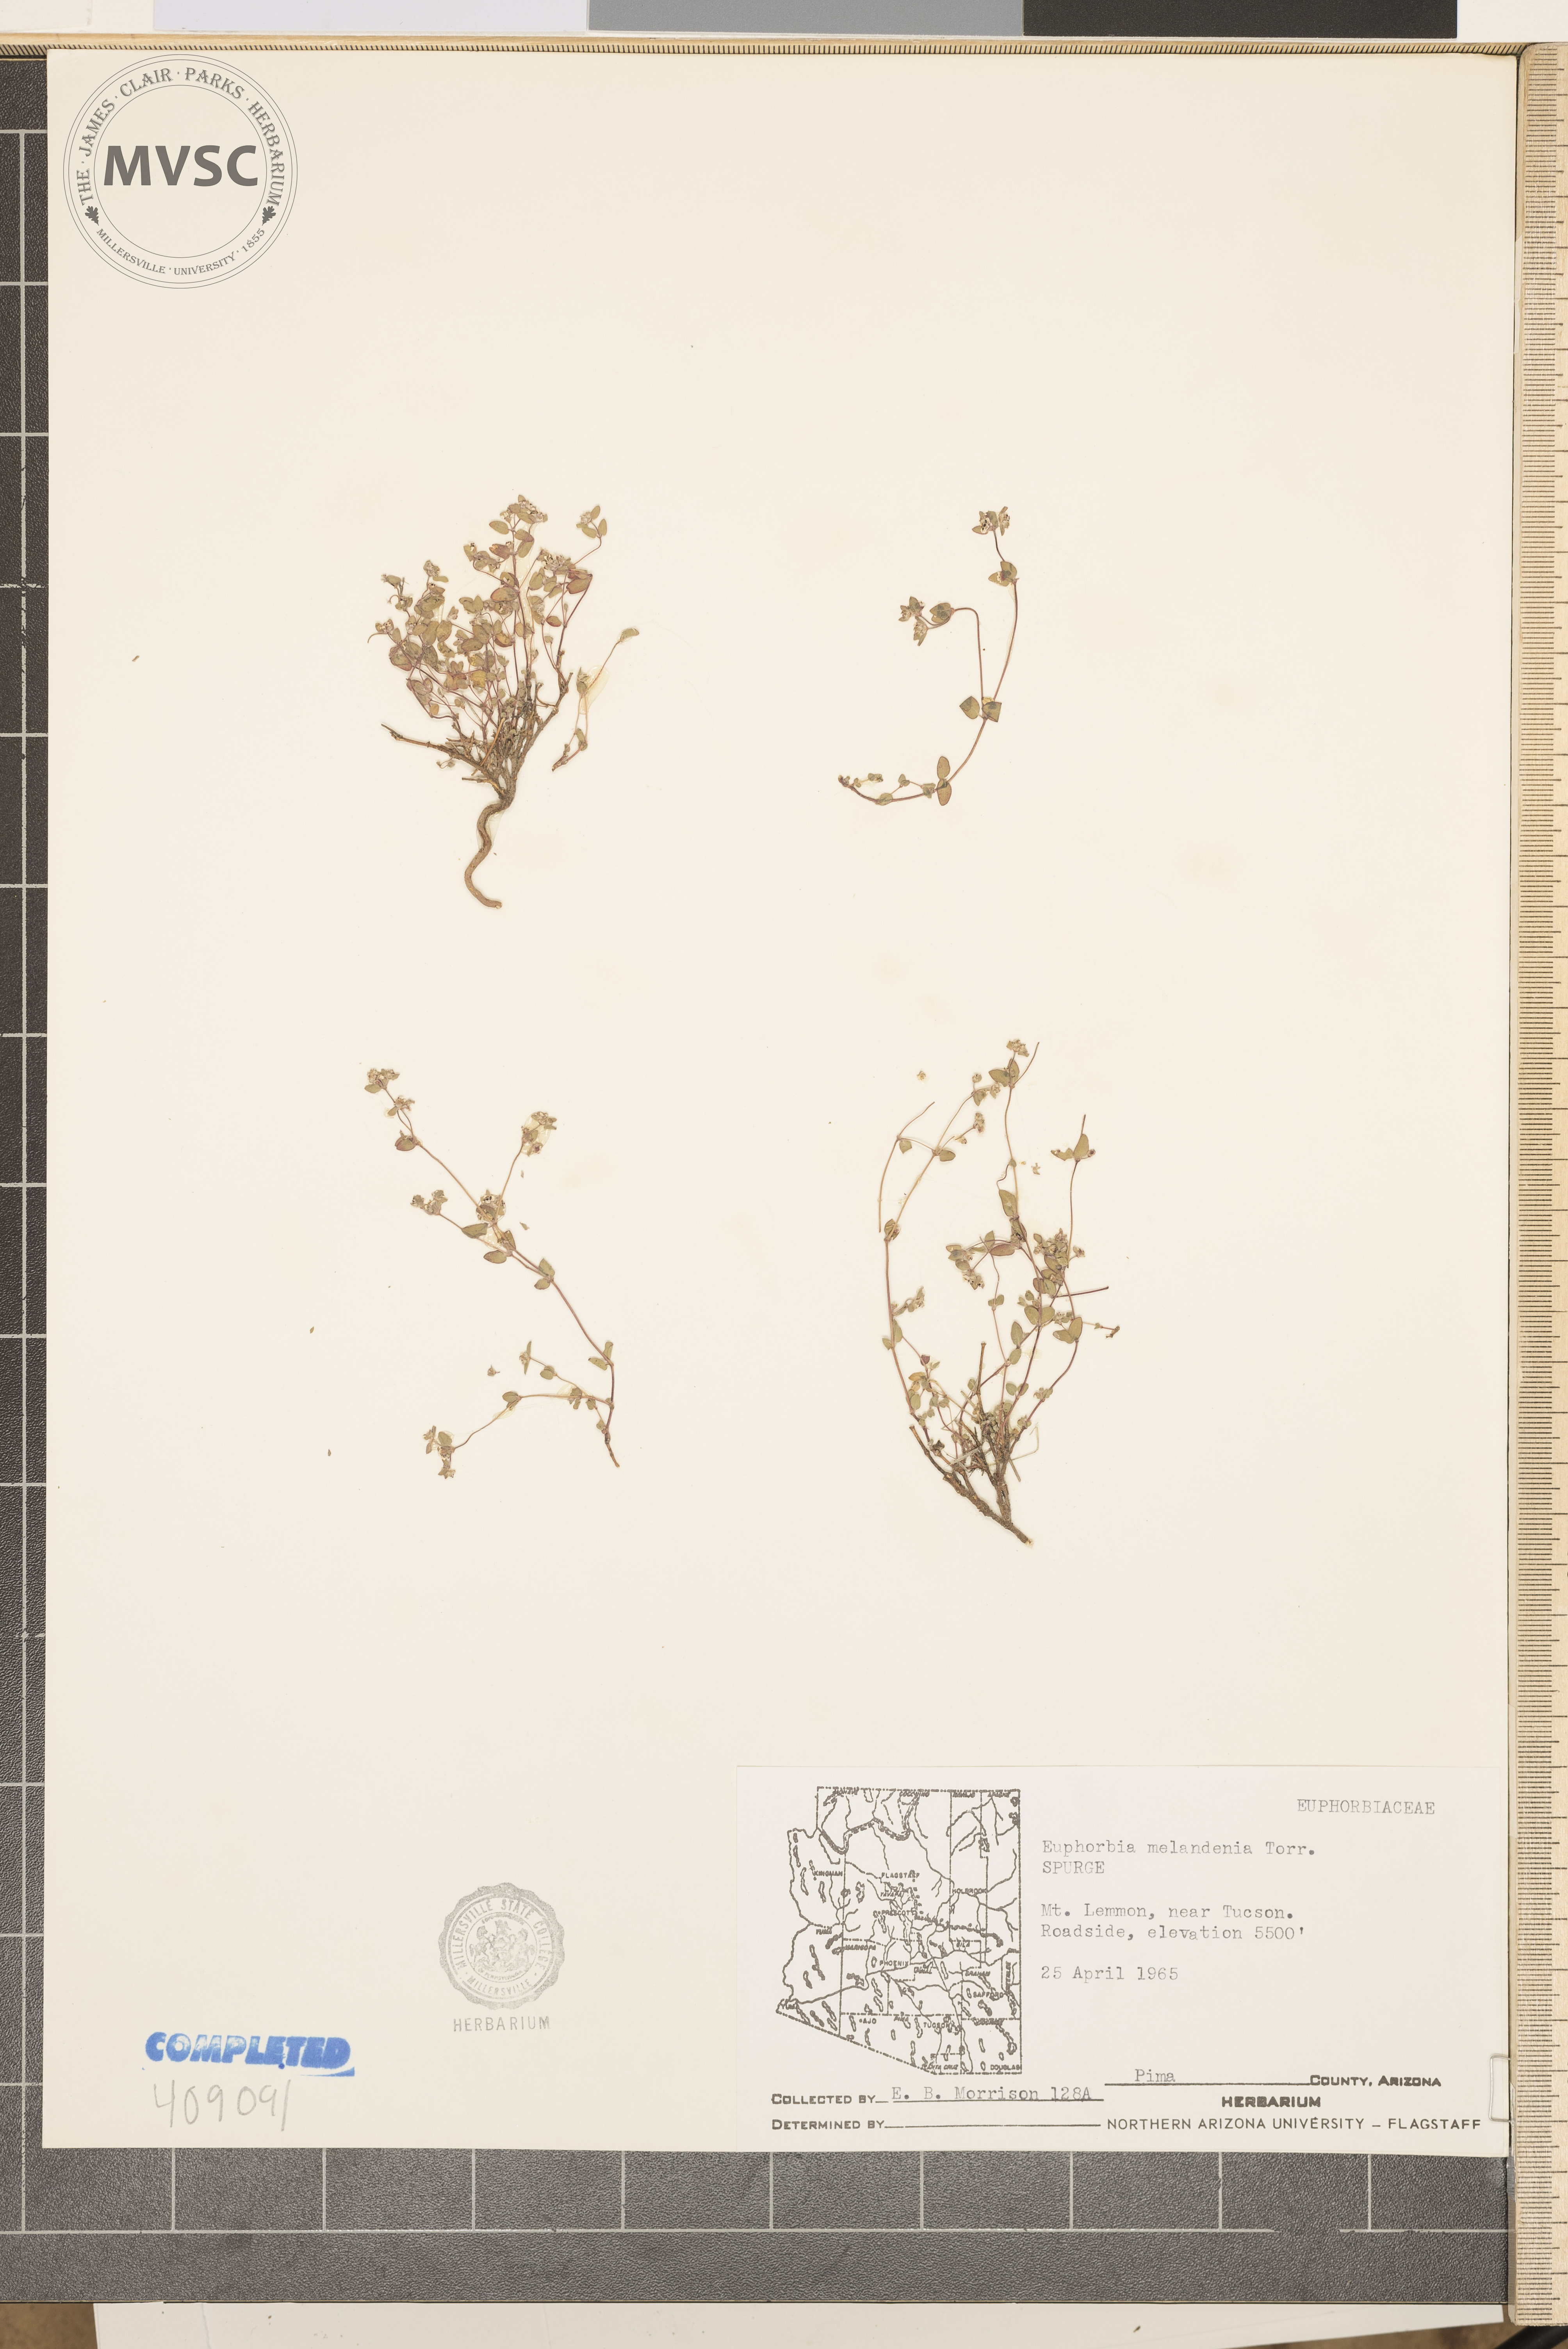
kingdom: Plantae
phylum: Tracheophyta
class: Magnoliopsida
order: Malpighiales
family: Euphorbiaceae
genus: Euphorbia
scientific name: Euphorbia melanadenia
